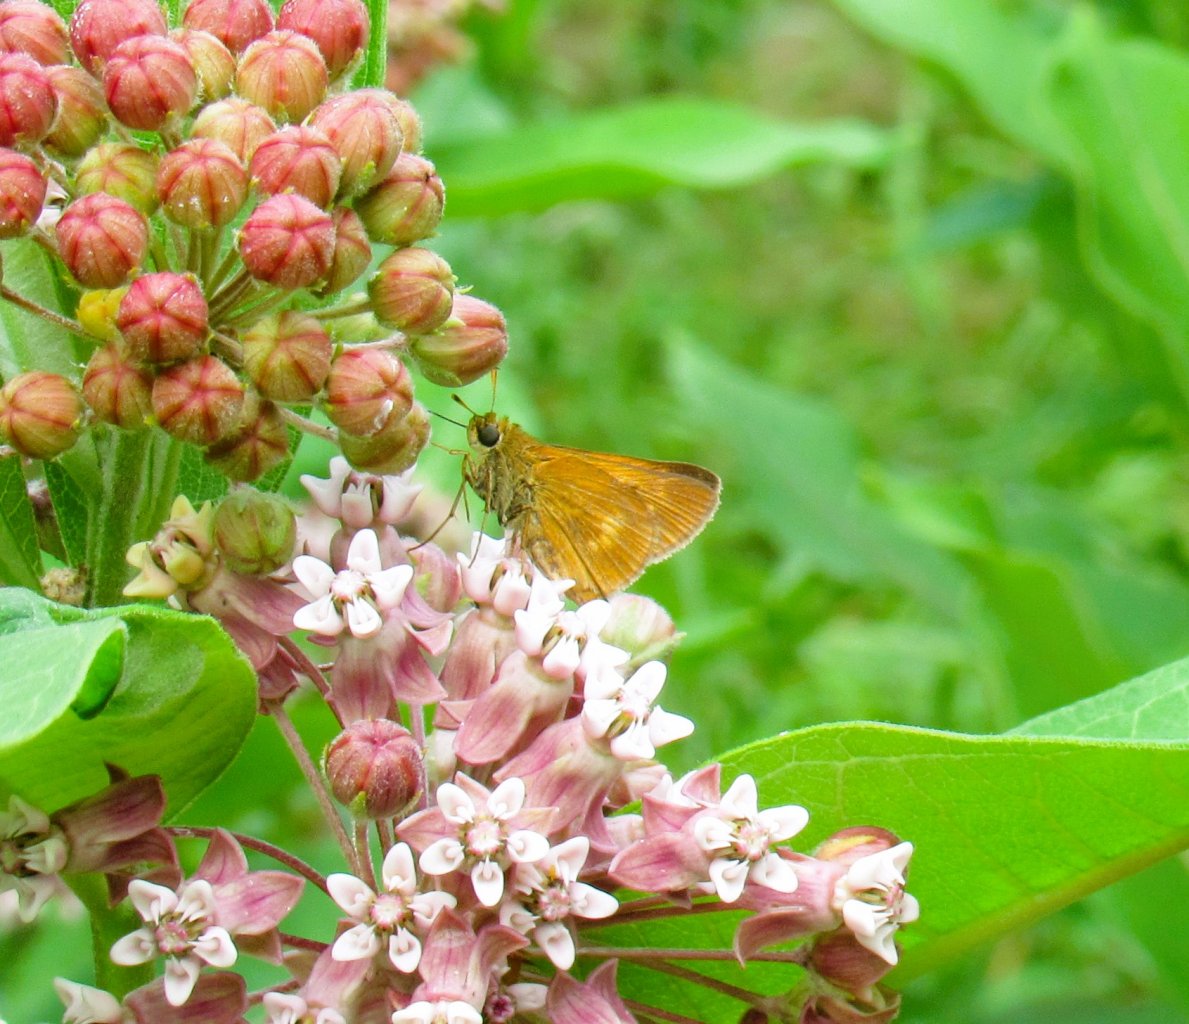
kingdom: Animalia
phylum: Arthropoda
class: Insecta
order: Lepidoptera
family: Hesperiidae
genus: Euphyes
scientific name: Euphyes conspicua
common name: Black Dash
